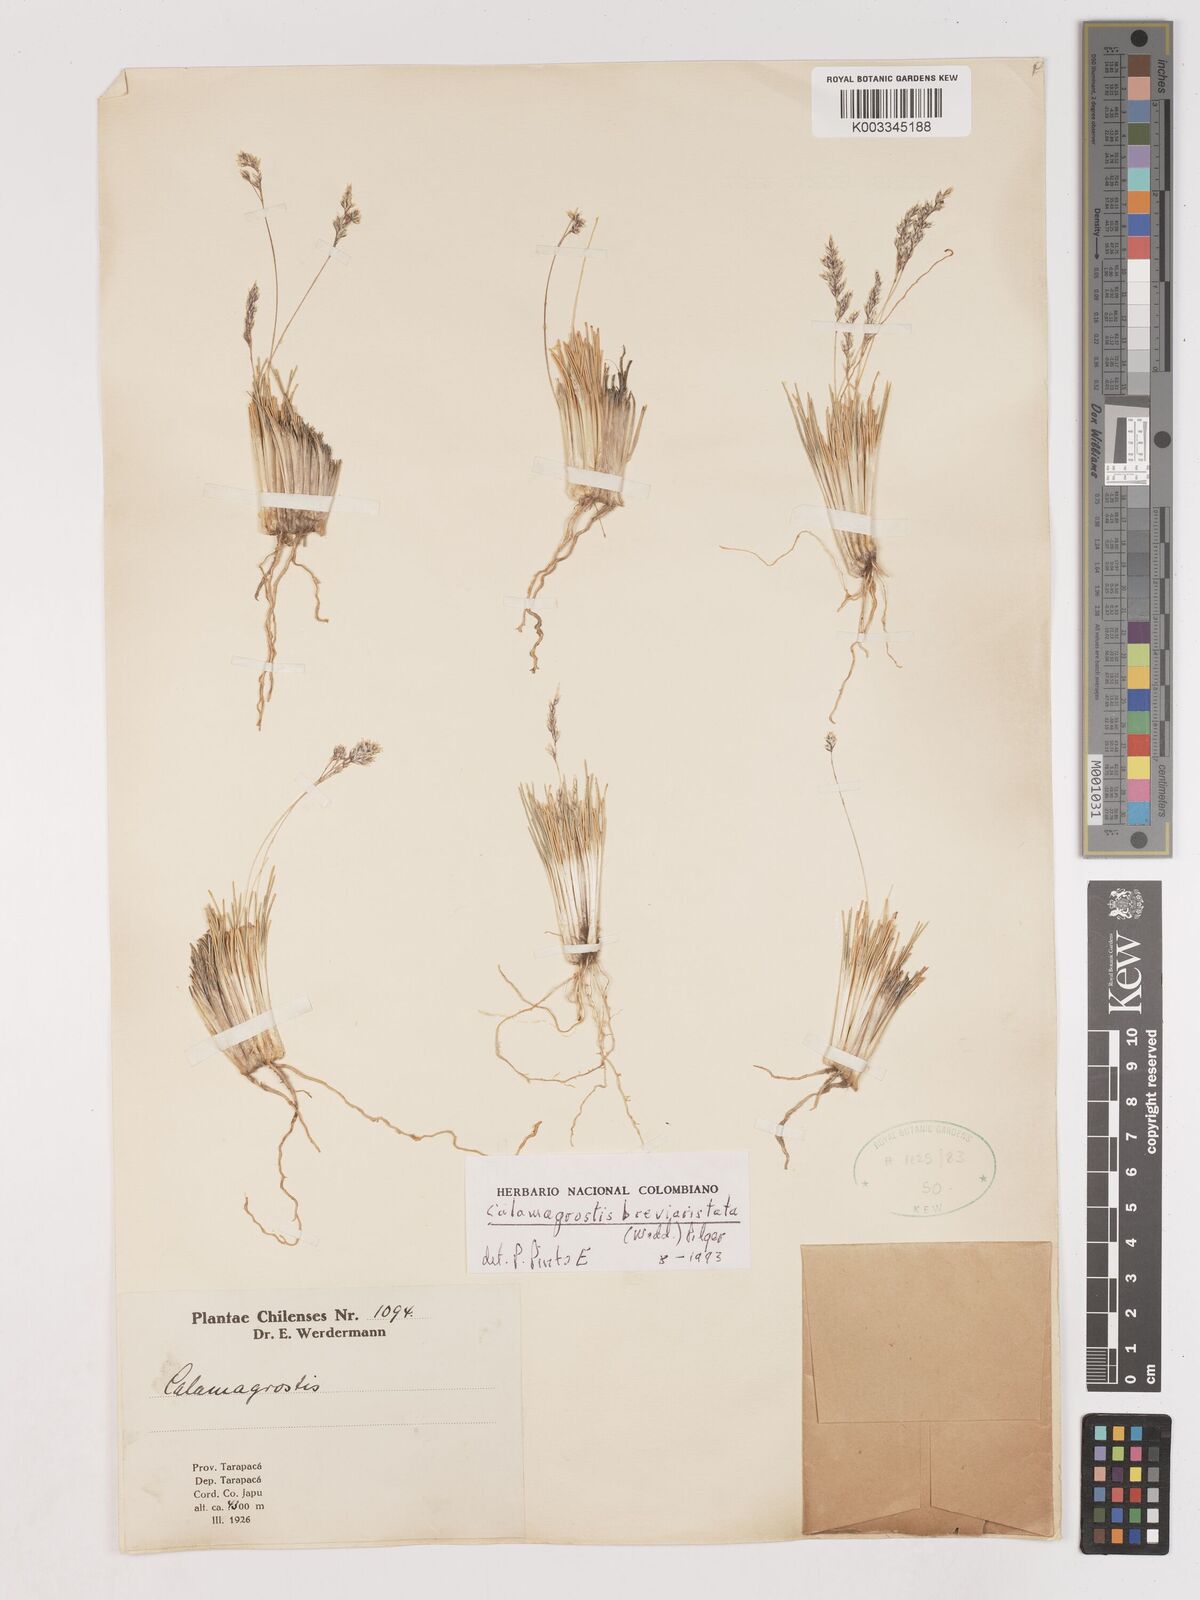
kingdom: Plantae
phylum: Tracheophyta
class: Liliopsida
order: Poales
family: Poaceae
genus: Cinnagrostis
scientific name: Cinnagrostis breviaristata
